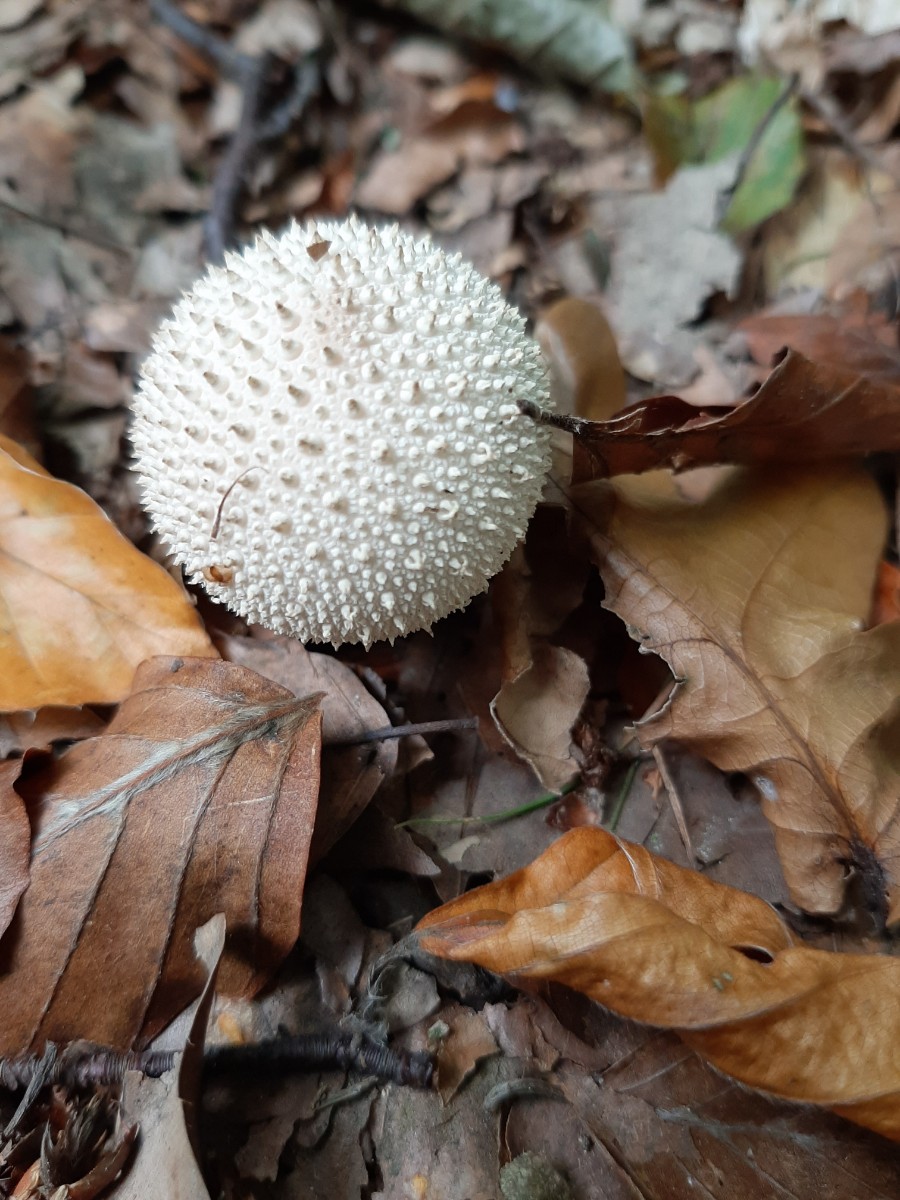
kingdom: Fungi
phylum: Basidiomycota
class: Agaricomycetes
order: Agaricales
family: Lycoperdaceae
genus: Lycoperdon
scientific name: Lycoperdon perlatum
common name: krystal-støvbold
